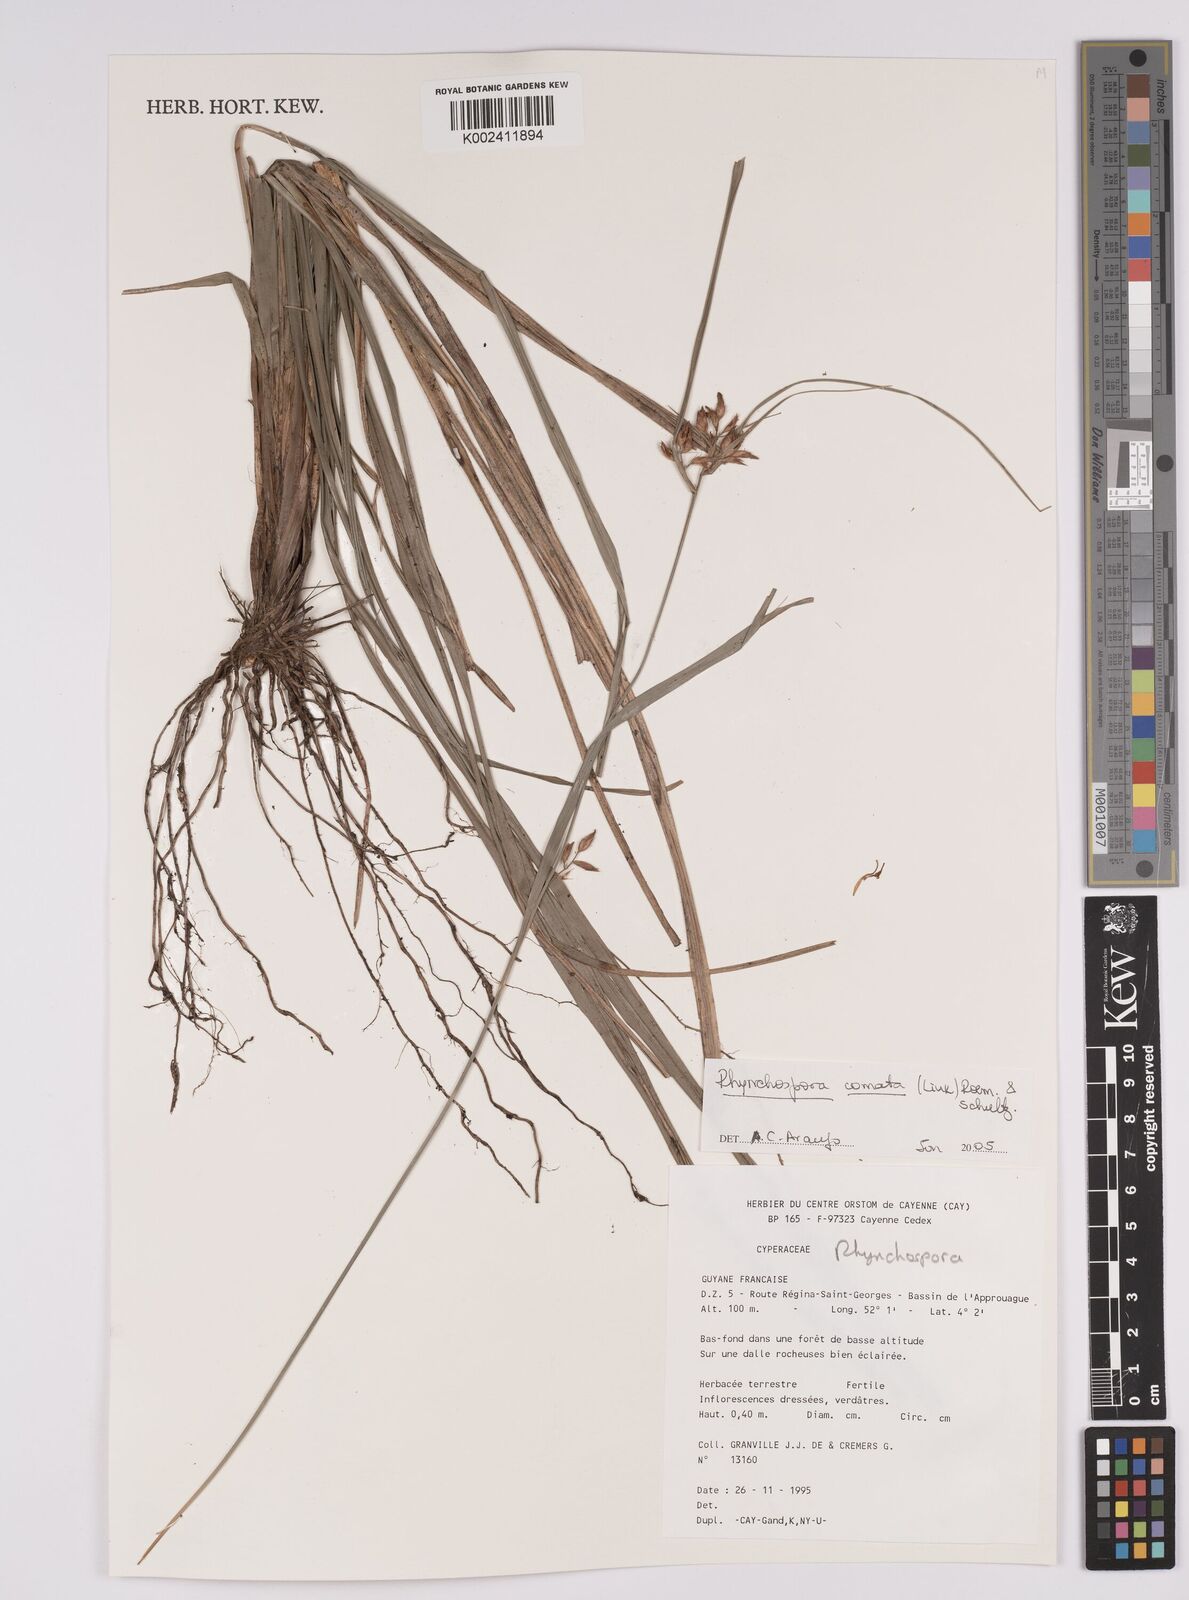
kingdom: Plantae
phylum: Tracheophyta
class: Liliopsida
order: Poales
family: Cyperaceae
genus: Rhynchospora
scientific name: Rhynchospora comata
